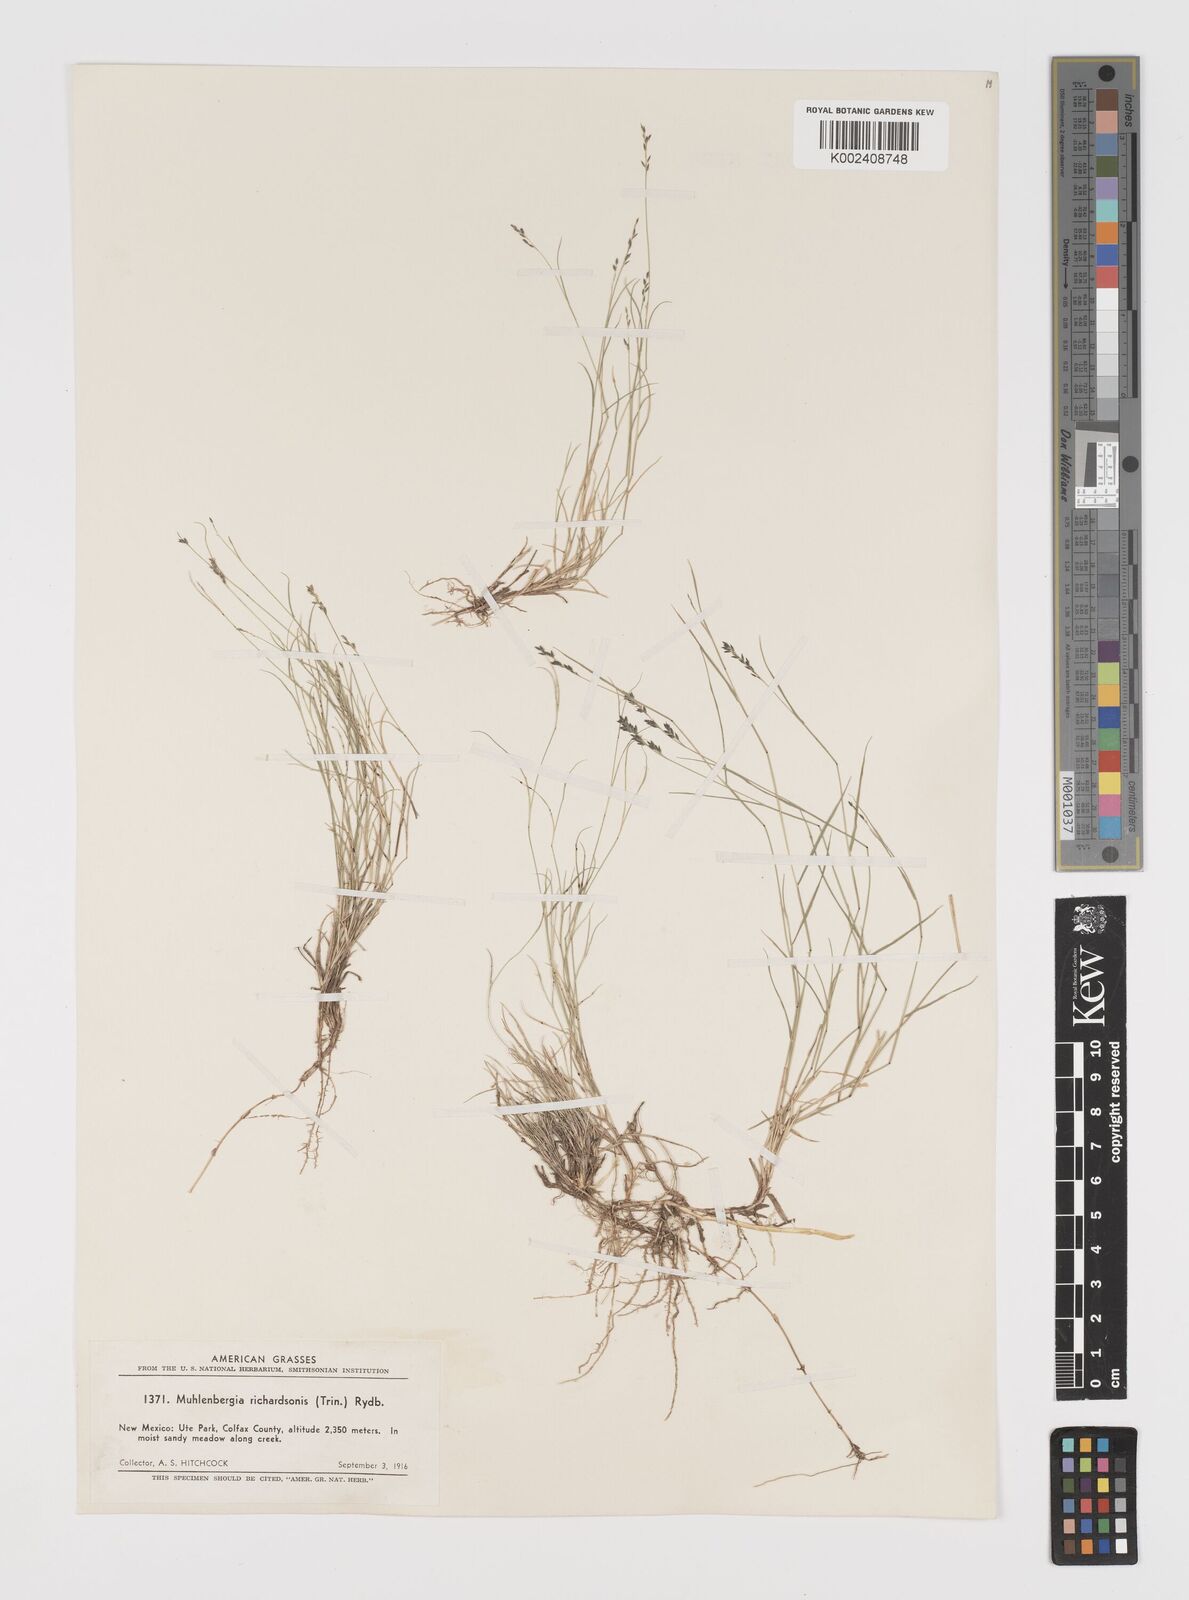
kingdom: Plantae
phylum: Tracheophyta
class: Liliopsida
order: Poales
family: Poaceae
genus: Muhlenbergia
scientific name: Muhlenbergia richardsonis
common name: Mat muhly
